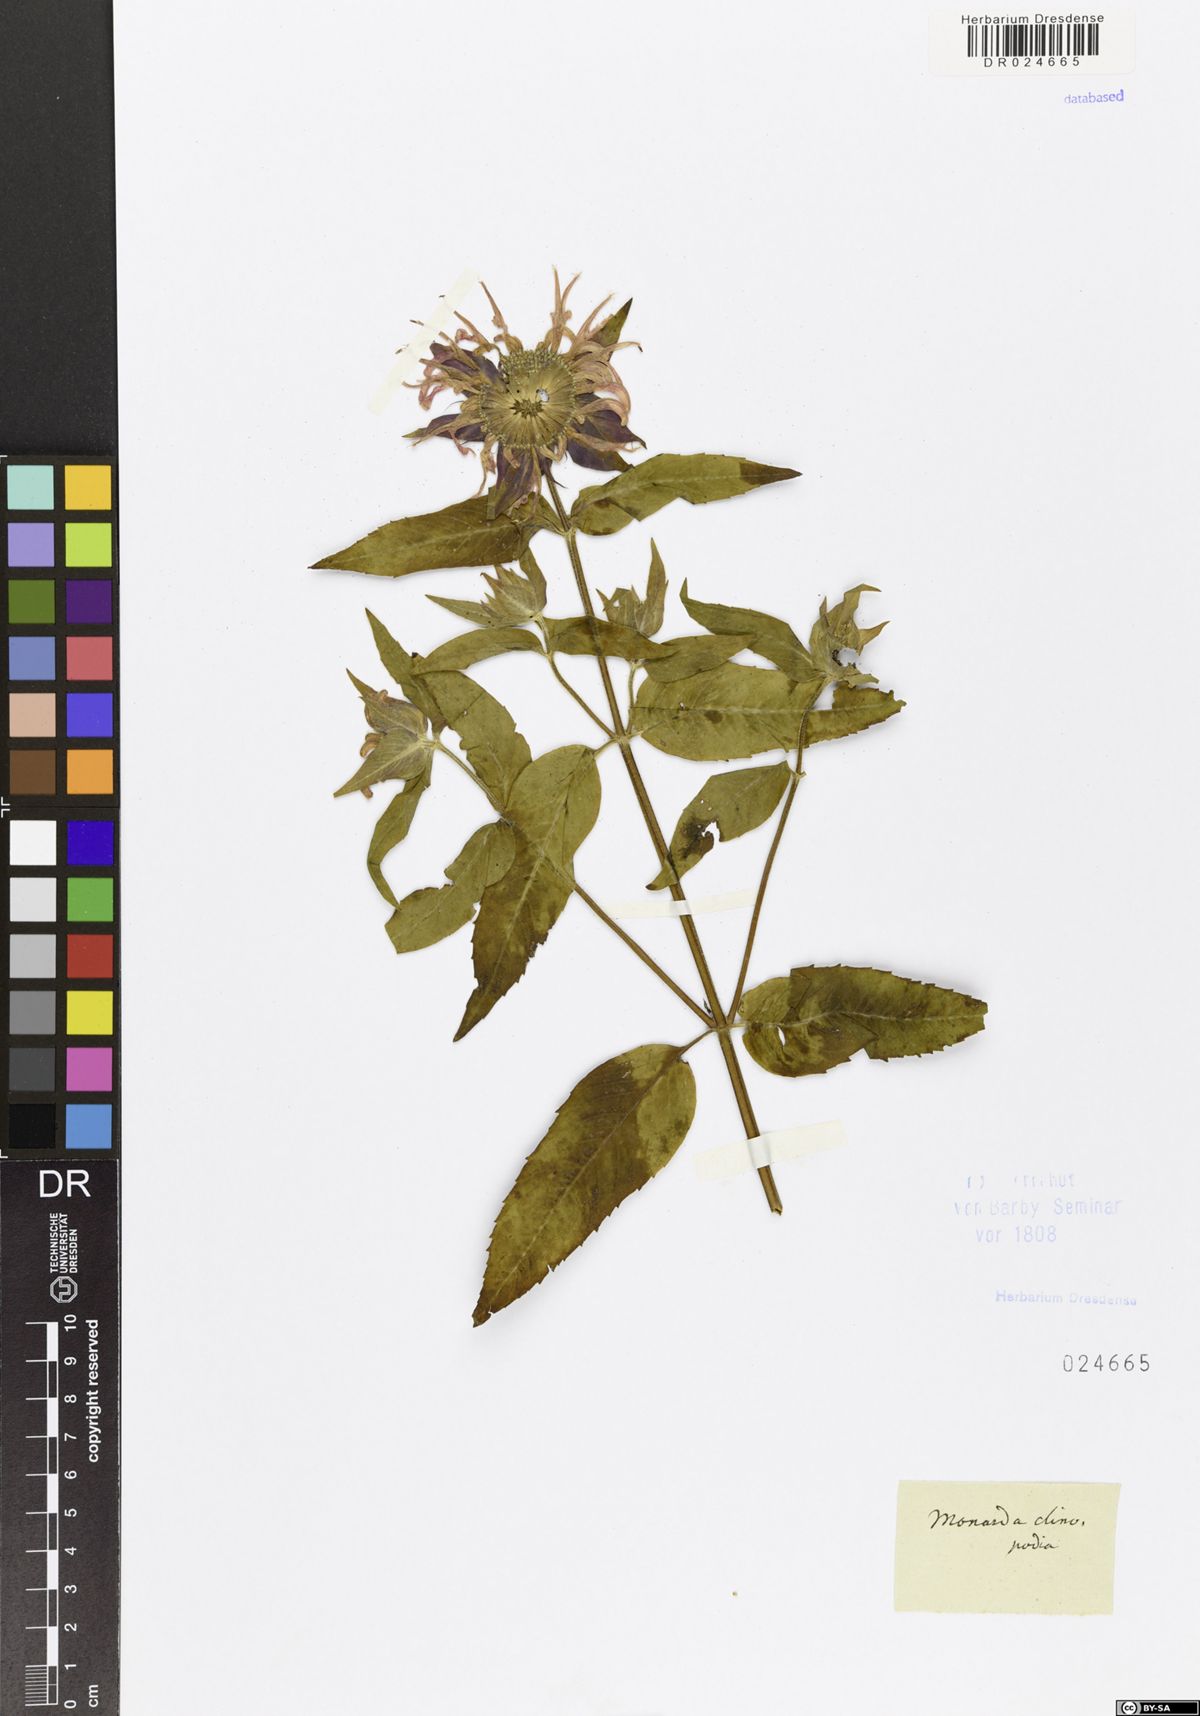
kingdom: Plantae
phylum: Tracheophyta
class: Magnoliopsida
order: Lamiales
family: Lamiaceae
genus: Monarda
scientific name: Monarda clinopodia
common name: Basil beebalm
